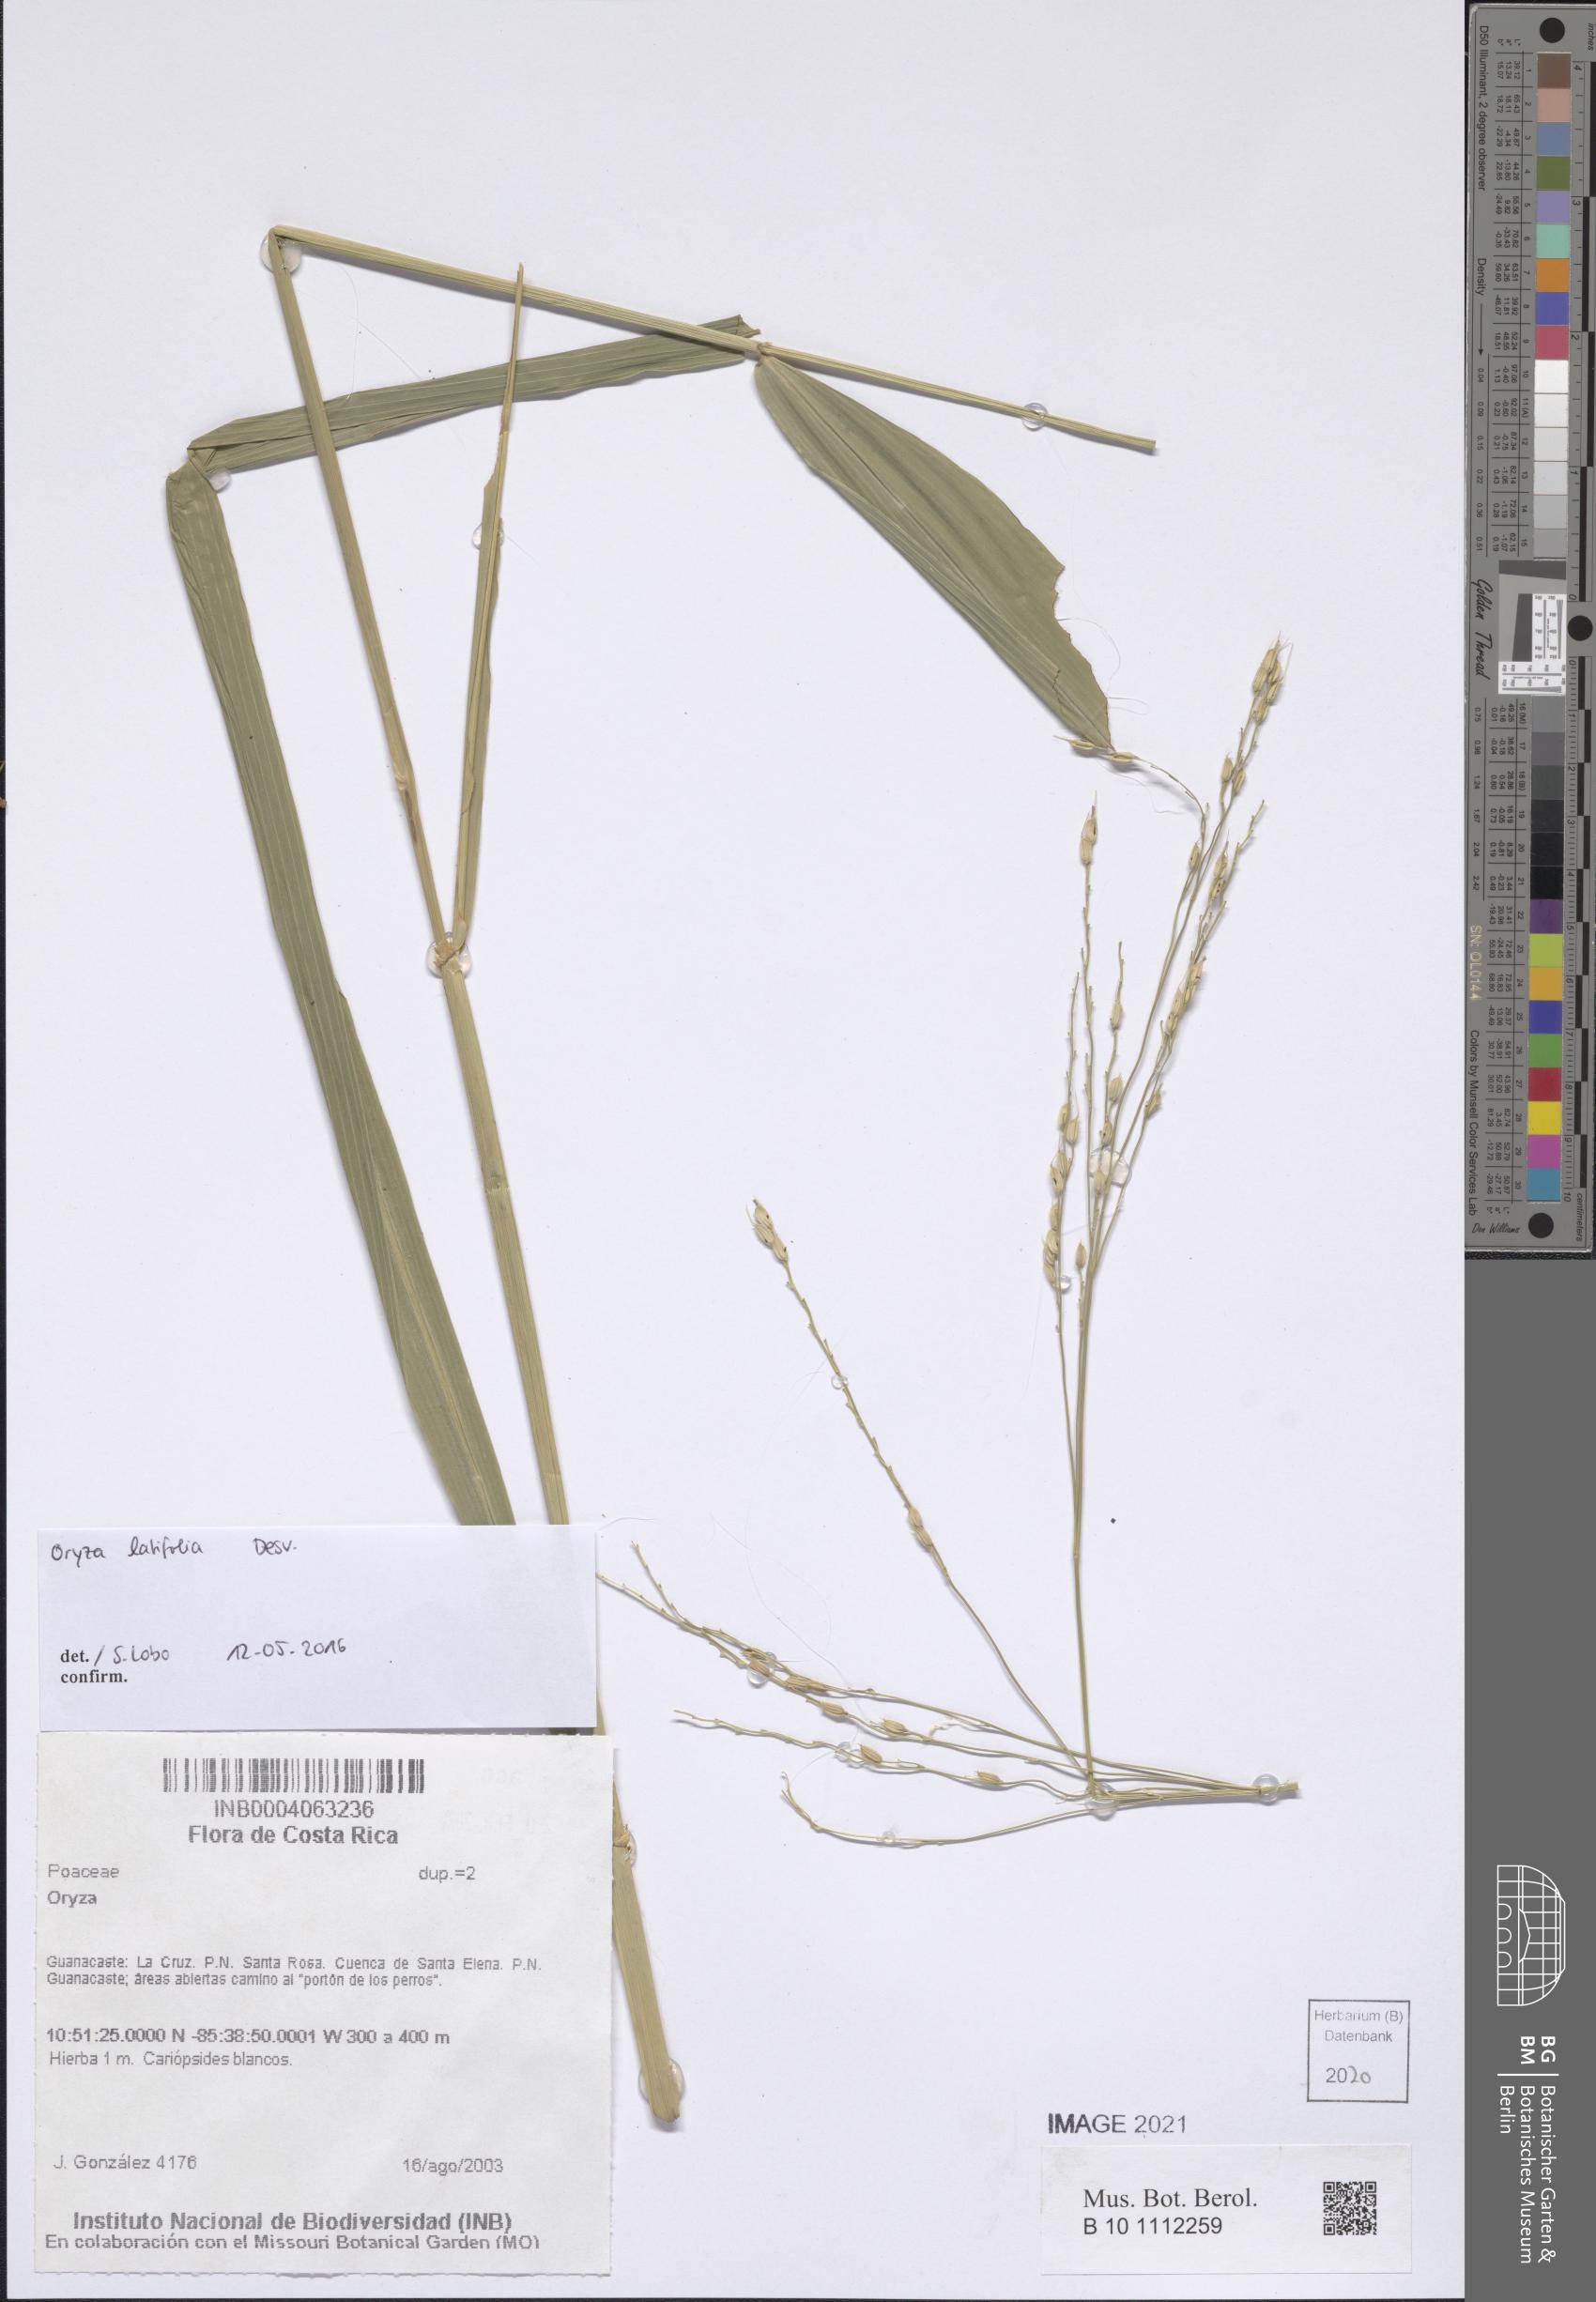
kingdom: Plantae
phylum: Tracheophyta
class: Liliopsida
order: Poales
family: Poaceae
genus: Oryza
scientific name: Oryza
